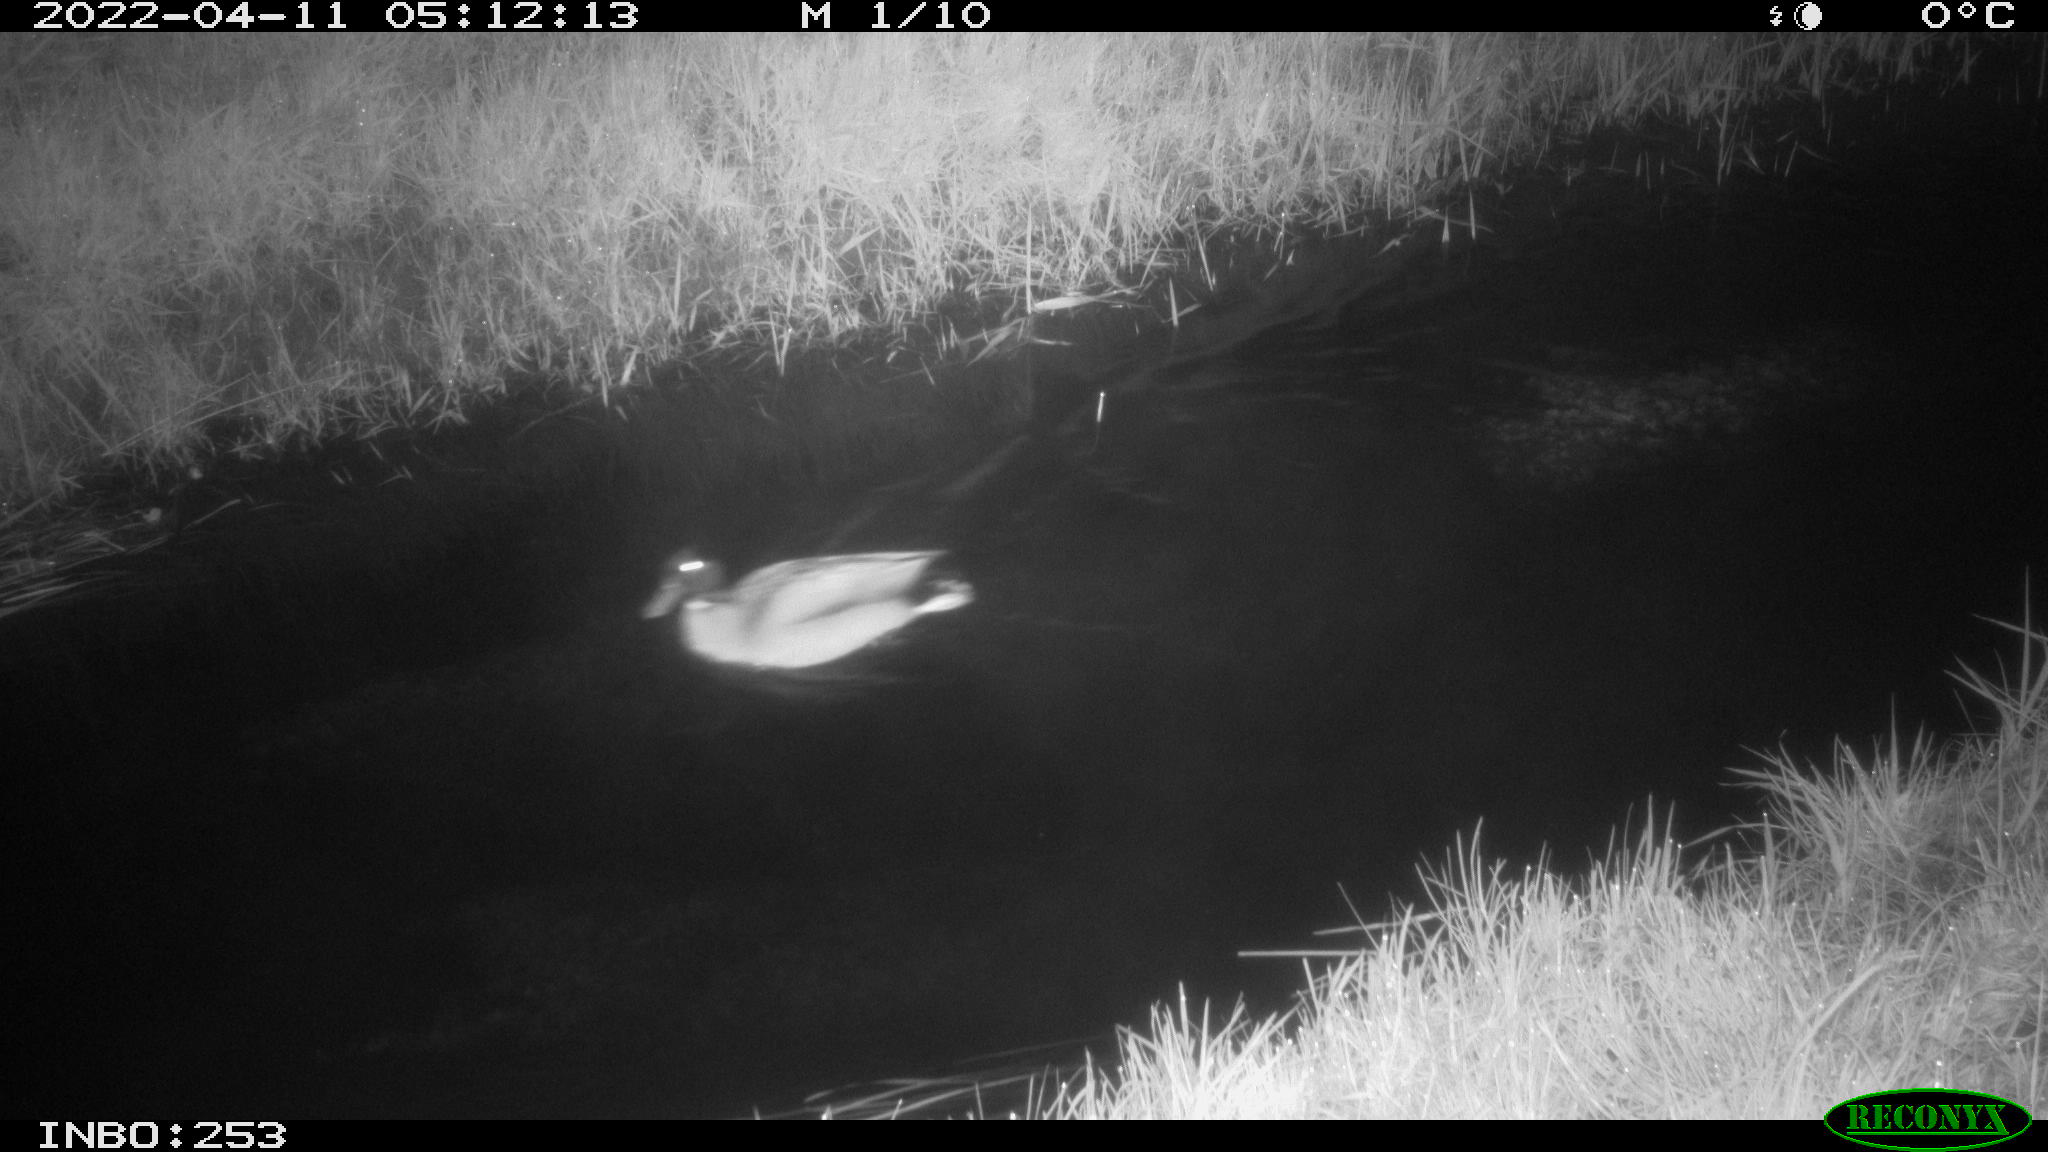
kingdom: Animalia
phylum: Chordata
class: Aves
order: Anseriformes
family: Anatidae
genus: Anas
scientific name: Anas platyrhynchos
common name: Mallard
